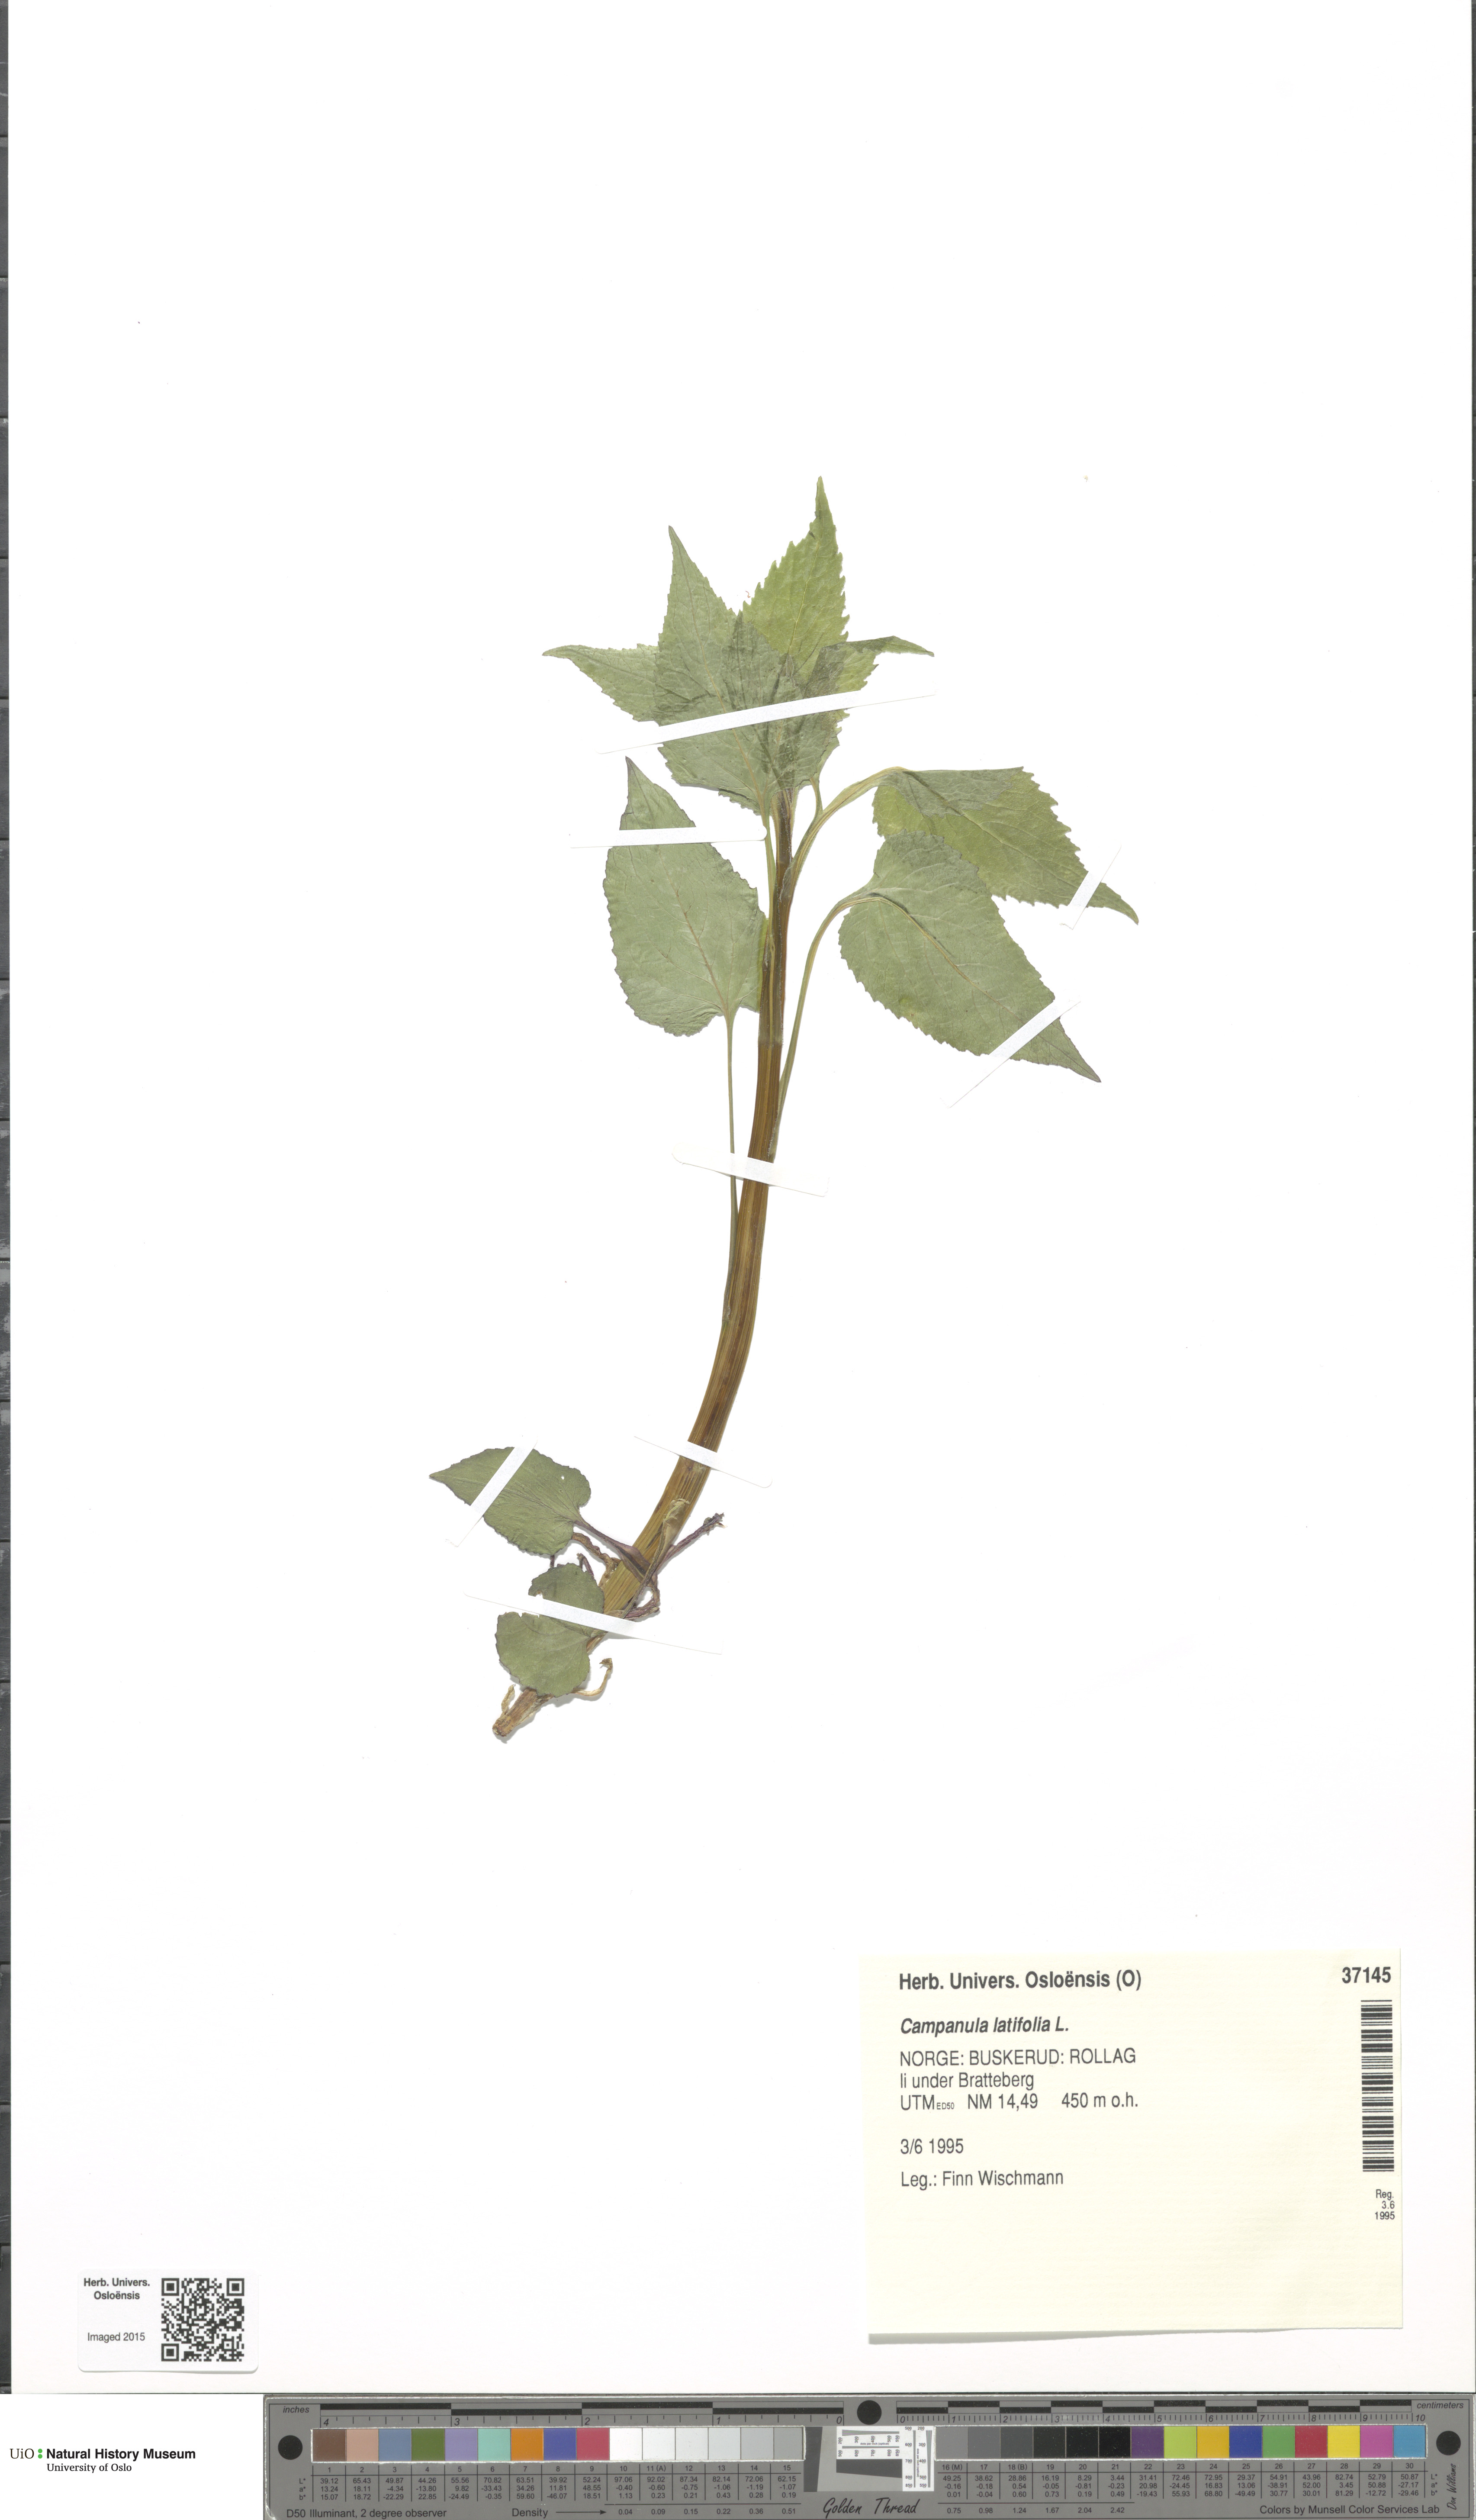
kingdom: Plantae
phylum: Tracheophyta
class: Magnoliopsida
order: Asterales
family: Campanulaceae
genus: Campanula
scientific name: Campanula latifolia
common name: Giant bellflower
